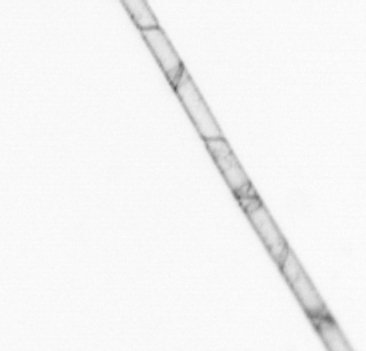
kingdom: Chromista
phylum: Ochrophyta
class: Bacillariophyceae
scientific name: Bacillariophyceae
